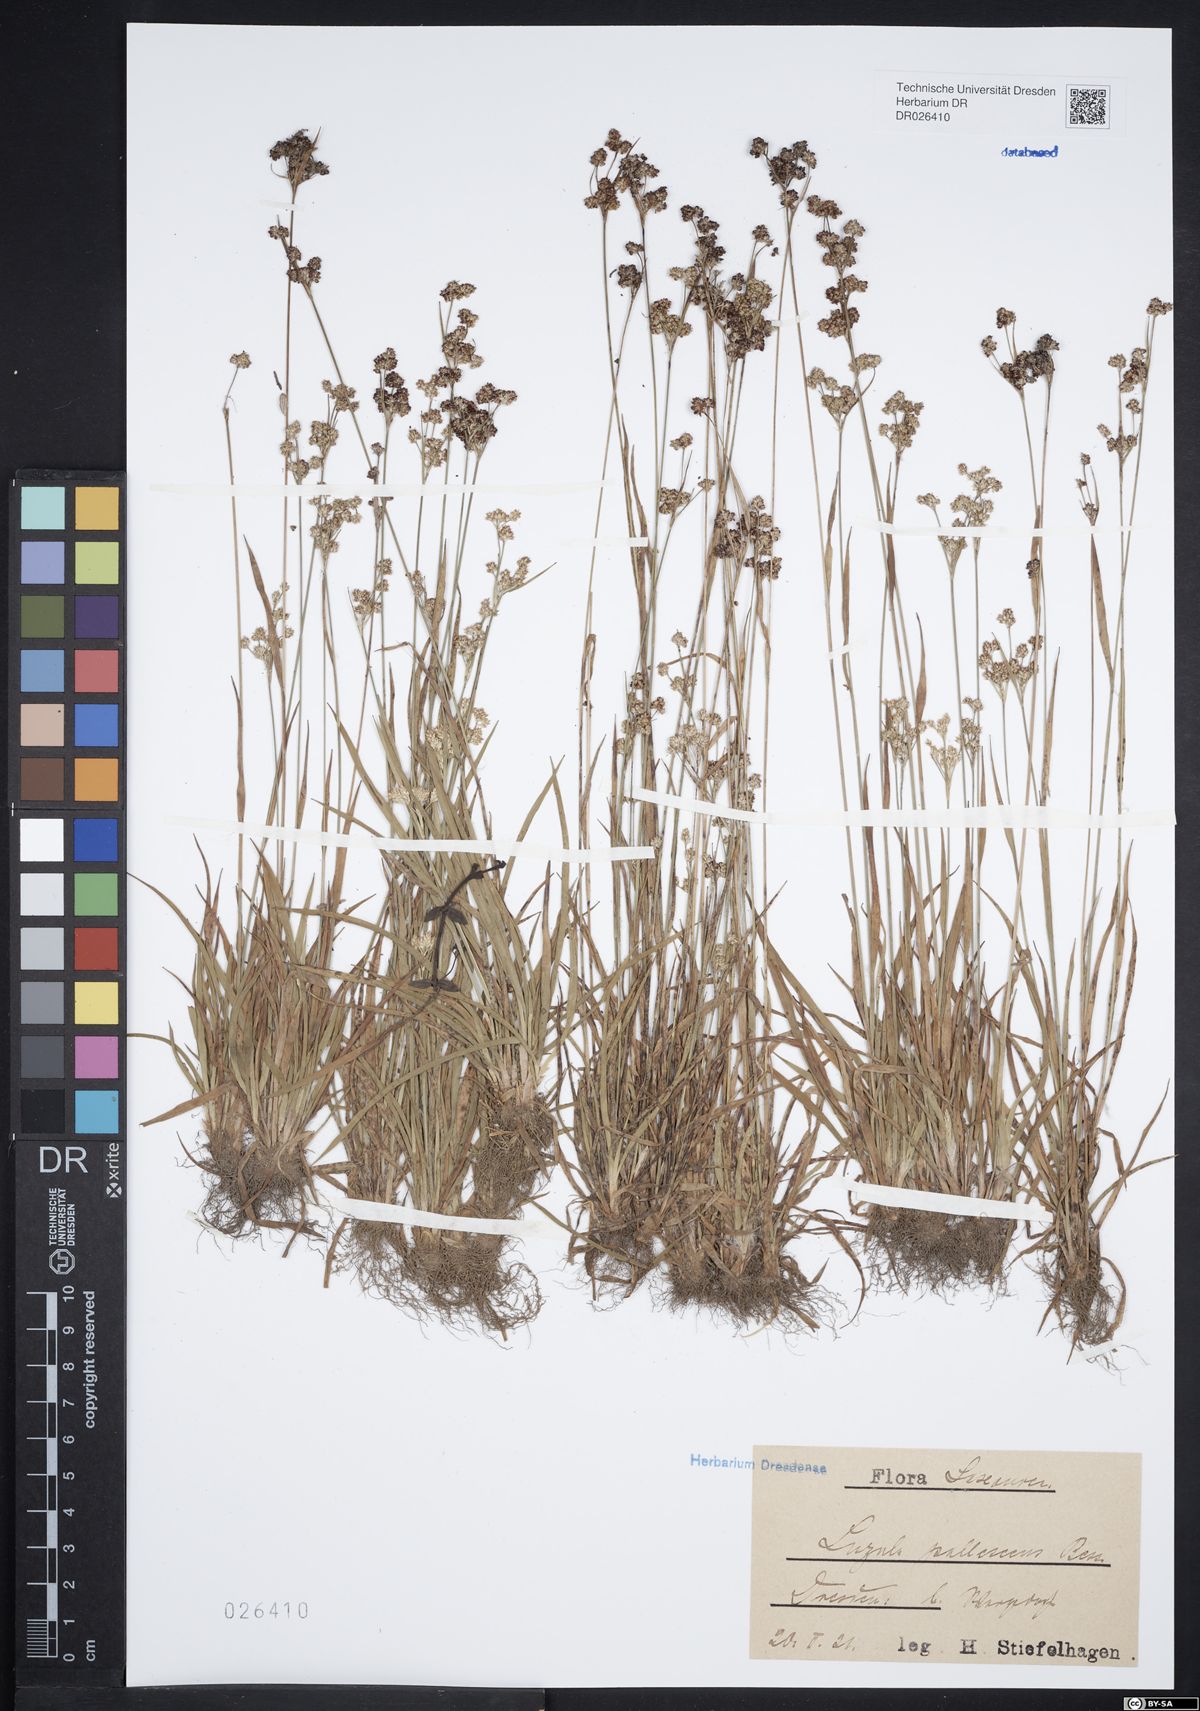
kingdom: Plantae
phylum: Tracheophyta
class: Liliopsida
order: Poales
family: Juncaceae
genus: Luzula
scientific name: Luzula pallescens
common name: Fen wood-rush
